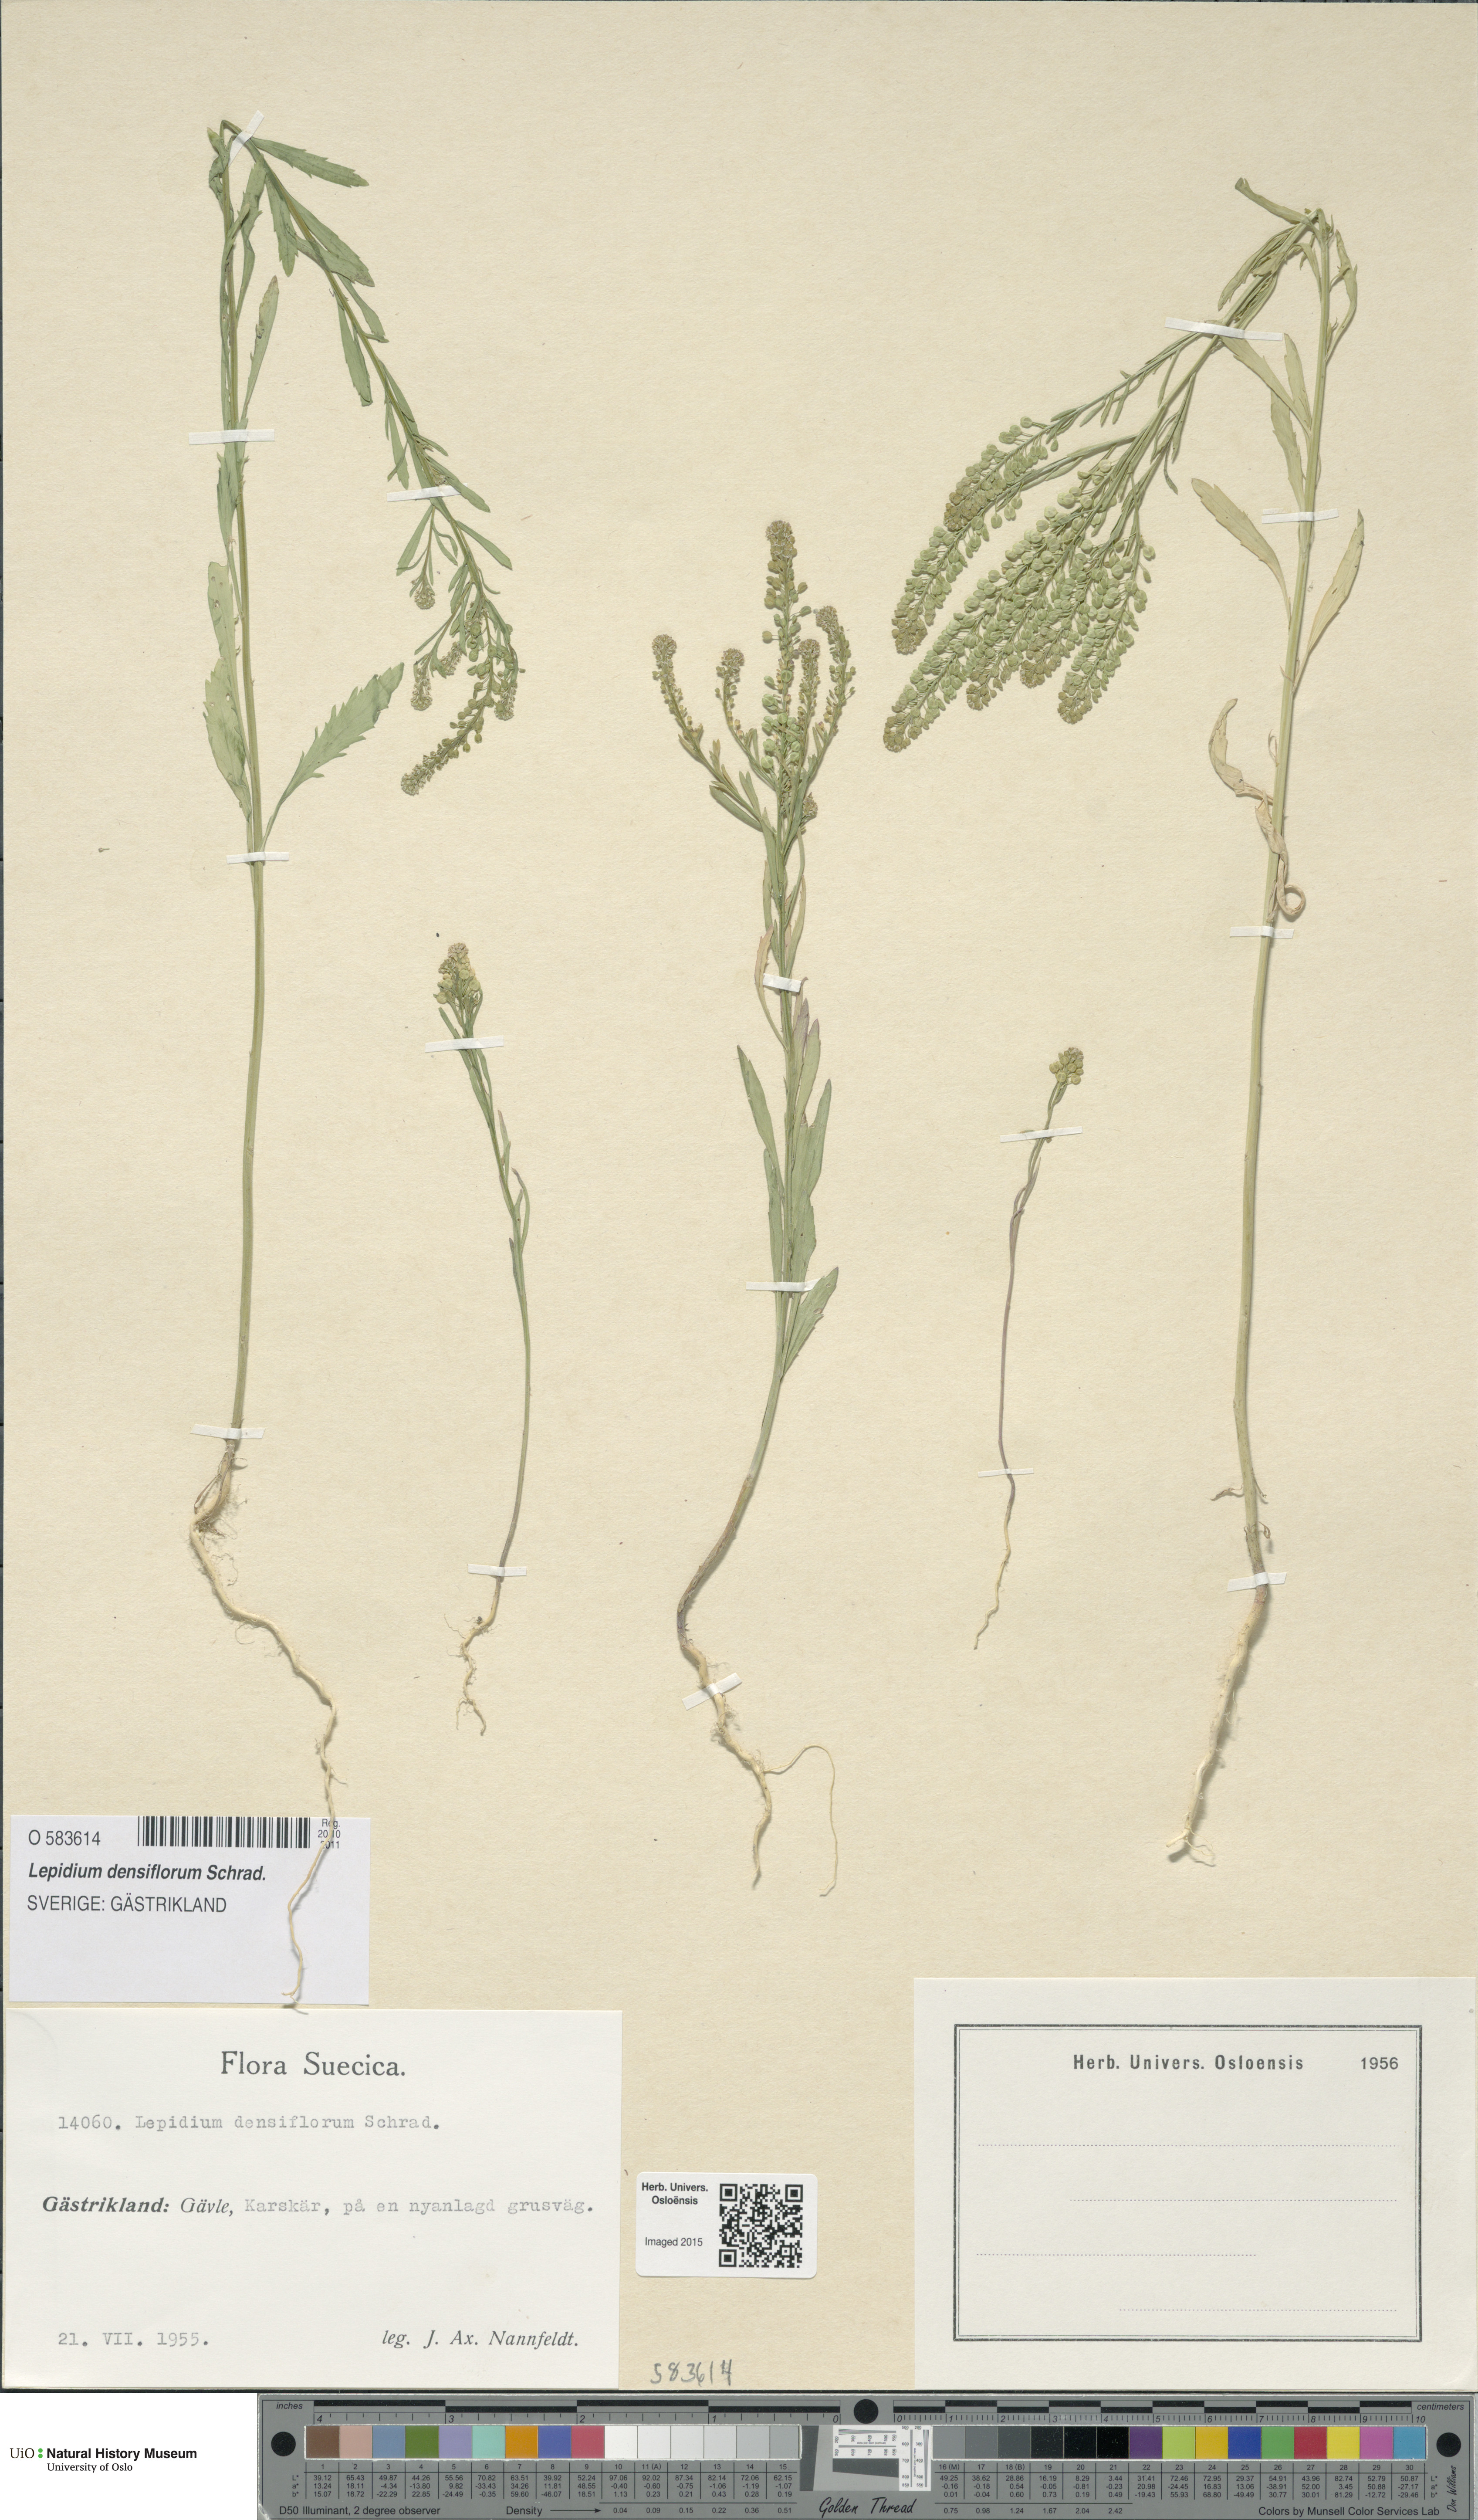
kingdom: Plantae
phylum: Tracheophyta
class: Magnoliopsida
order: Brassicales
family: Brassicaceae
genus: Lepidium
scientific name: Lepidium densiflorum
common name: Miner's pepperwort
